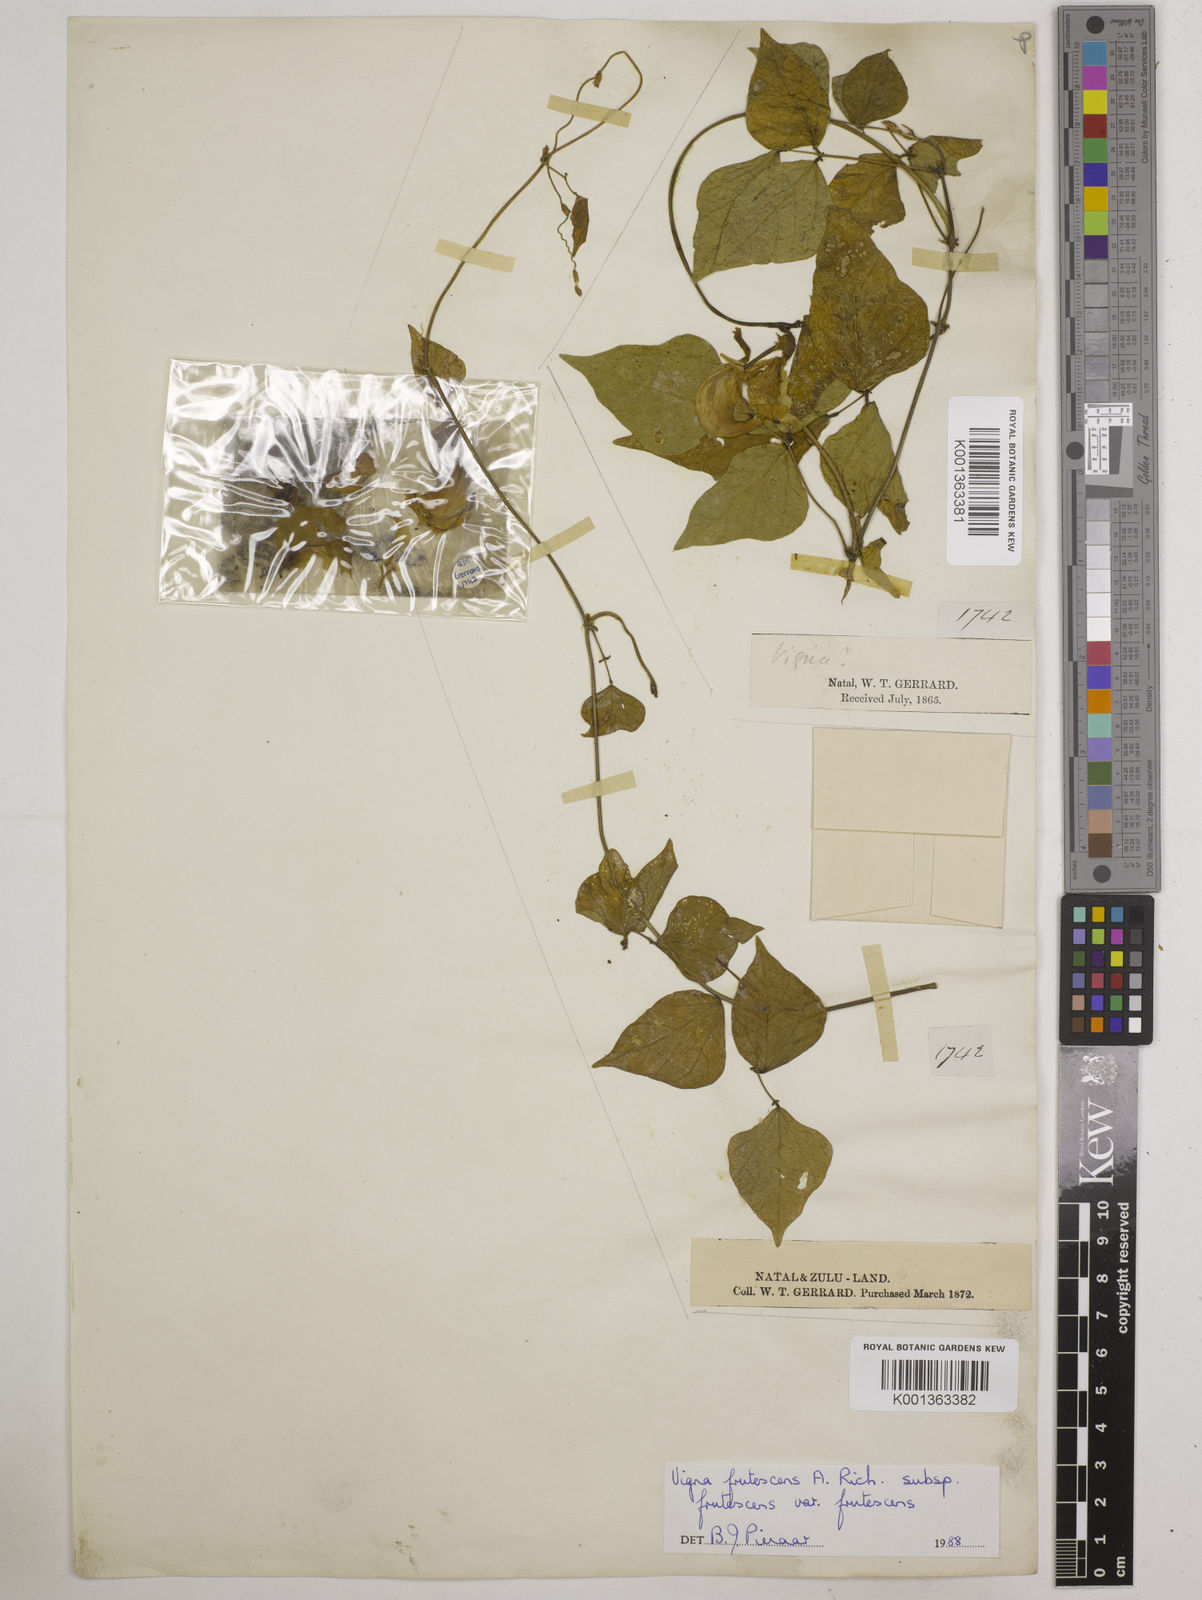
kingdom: Plantae
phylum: Tracheophyta
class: Magnoliopsida
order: Fabales
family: Fabaceae
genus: Vigna
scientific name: Vigna frutescens
